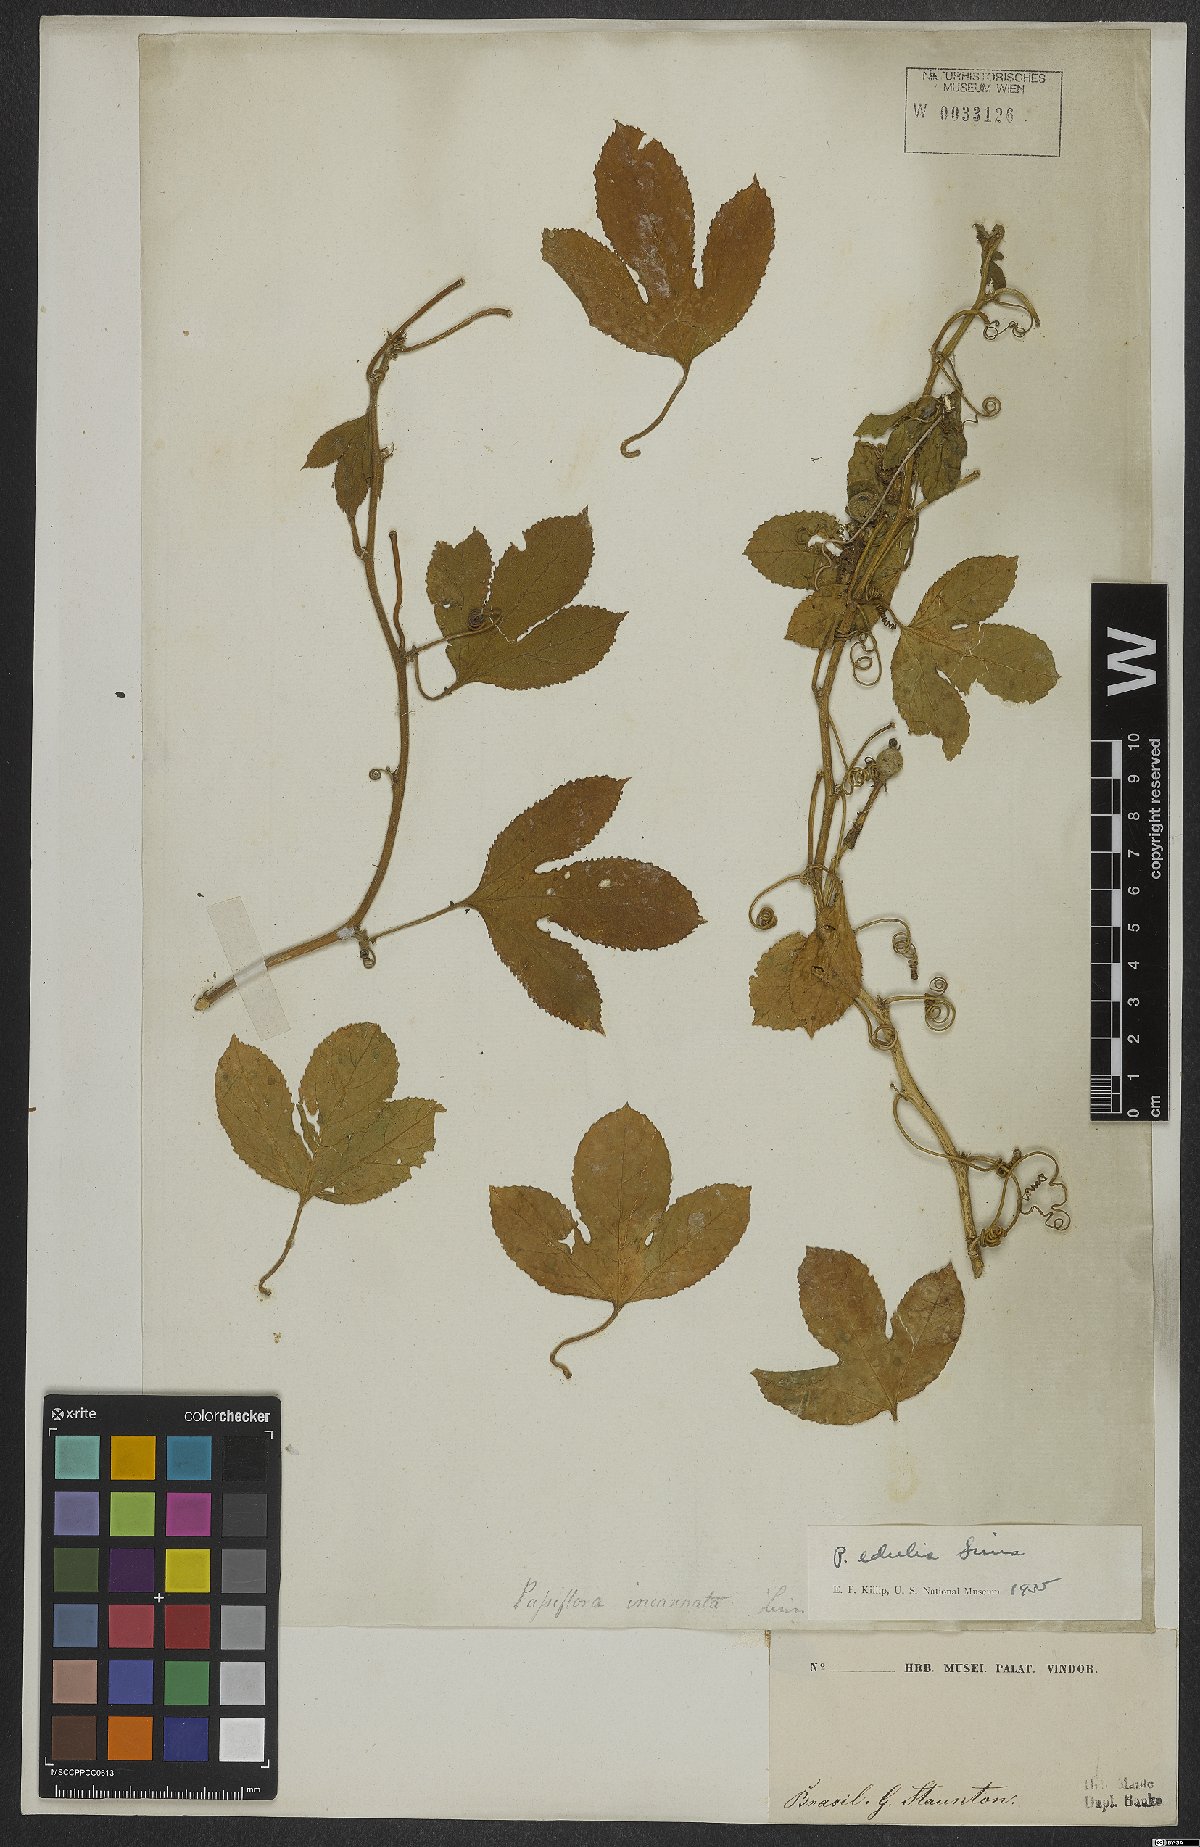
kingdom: Plantae
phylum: Tracheophyta
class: Magnoliopsida
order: Malpighiales
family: Passifloraceae
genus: Passiflora
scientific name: Passiflora edulis
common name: Purple granadilla
